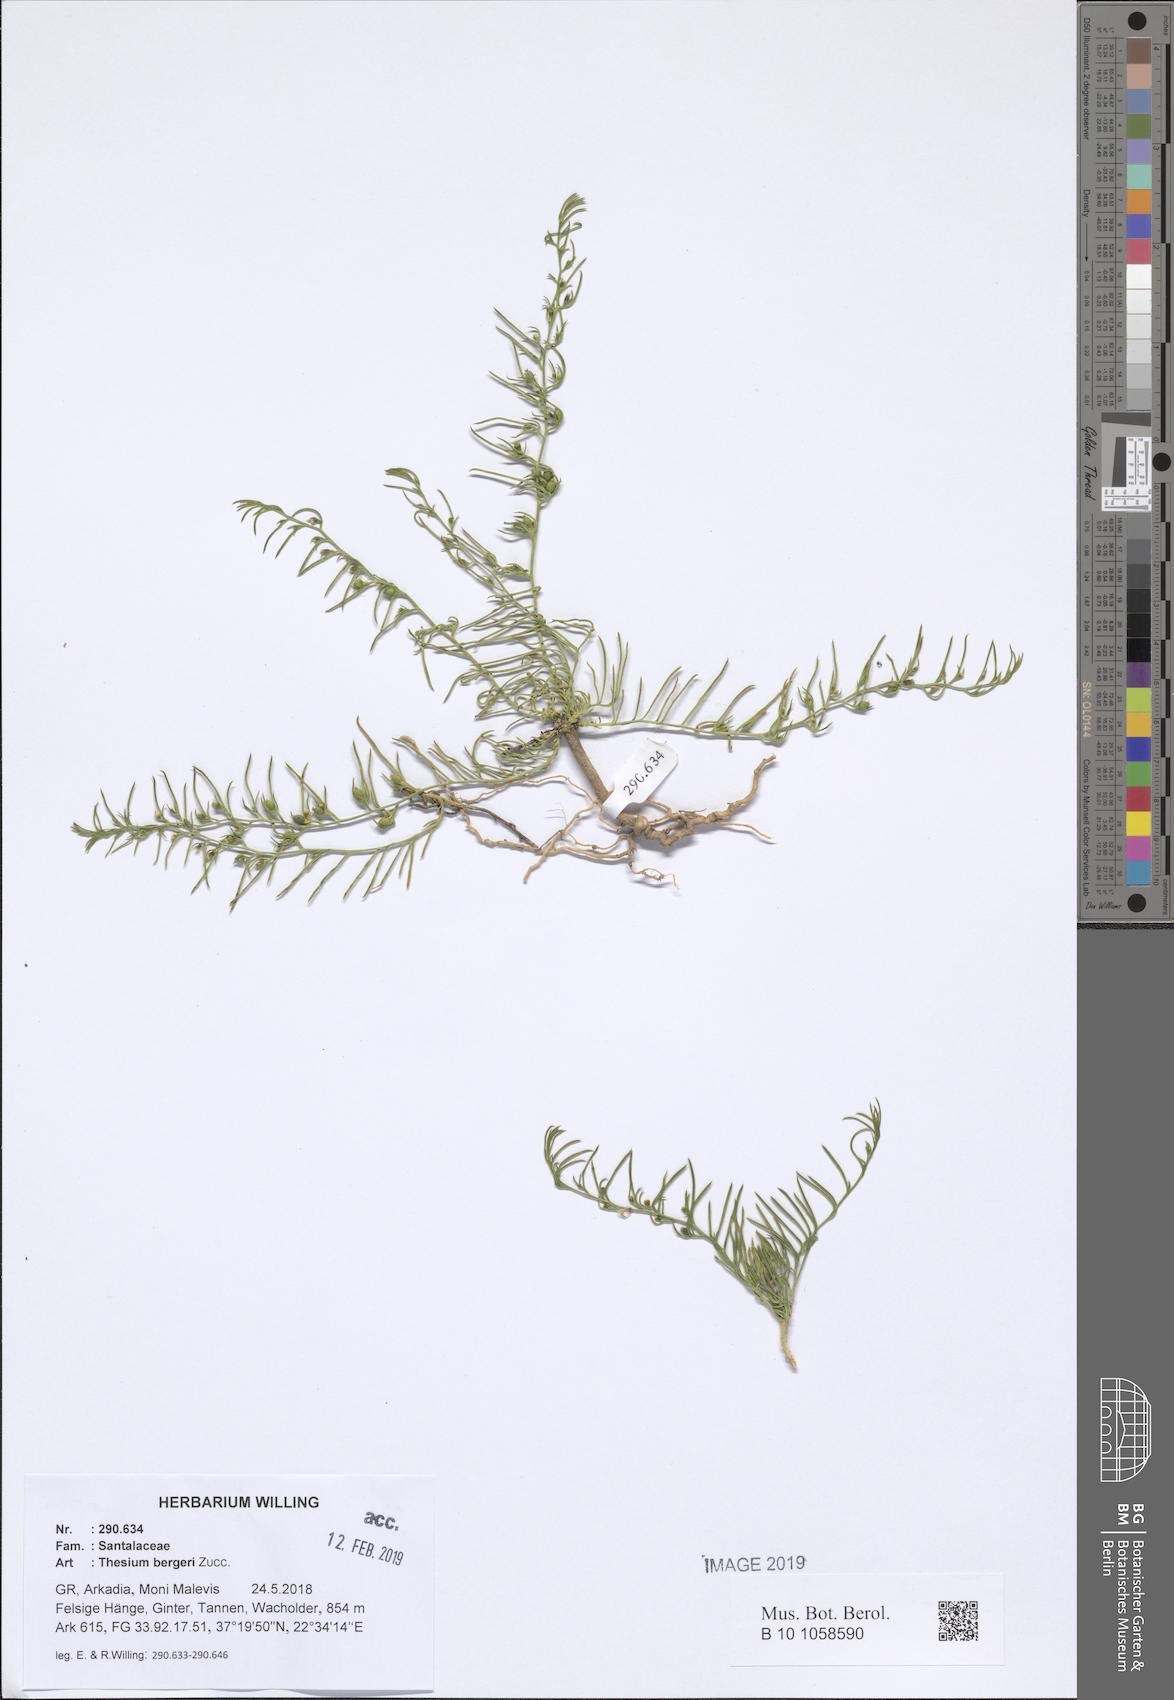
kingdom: Plantae
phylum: Tracheophyta
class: Magnoliopsida
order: Santalales
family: Thesiaceae
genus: Thesium
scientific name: Thesium bergeri
